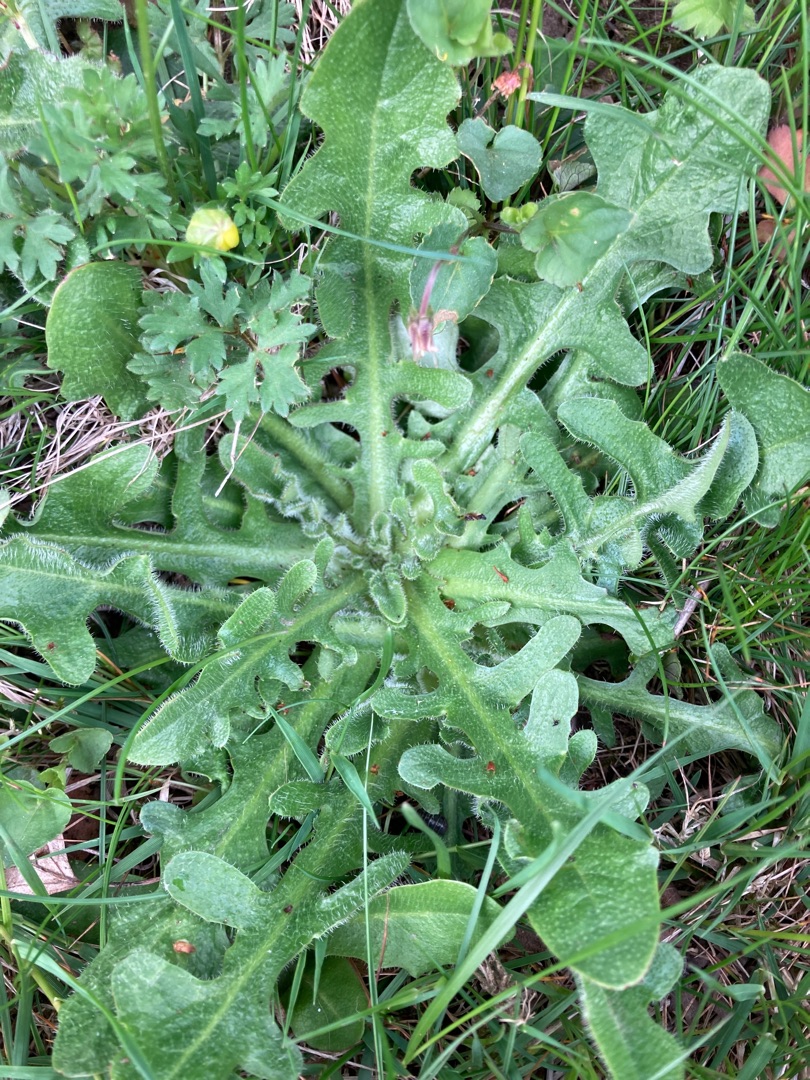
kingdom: Plantae
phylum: Tracheophyta
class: Magnoliopsida
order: Asterales
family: Asteraceae
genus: Hypochaeris
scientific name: Hypochaeris radicata
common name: Almindelig kongepen
